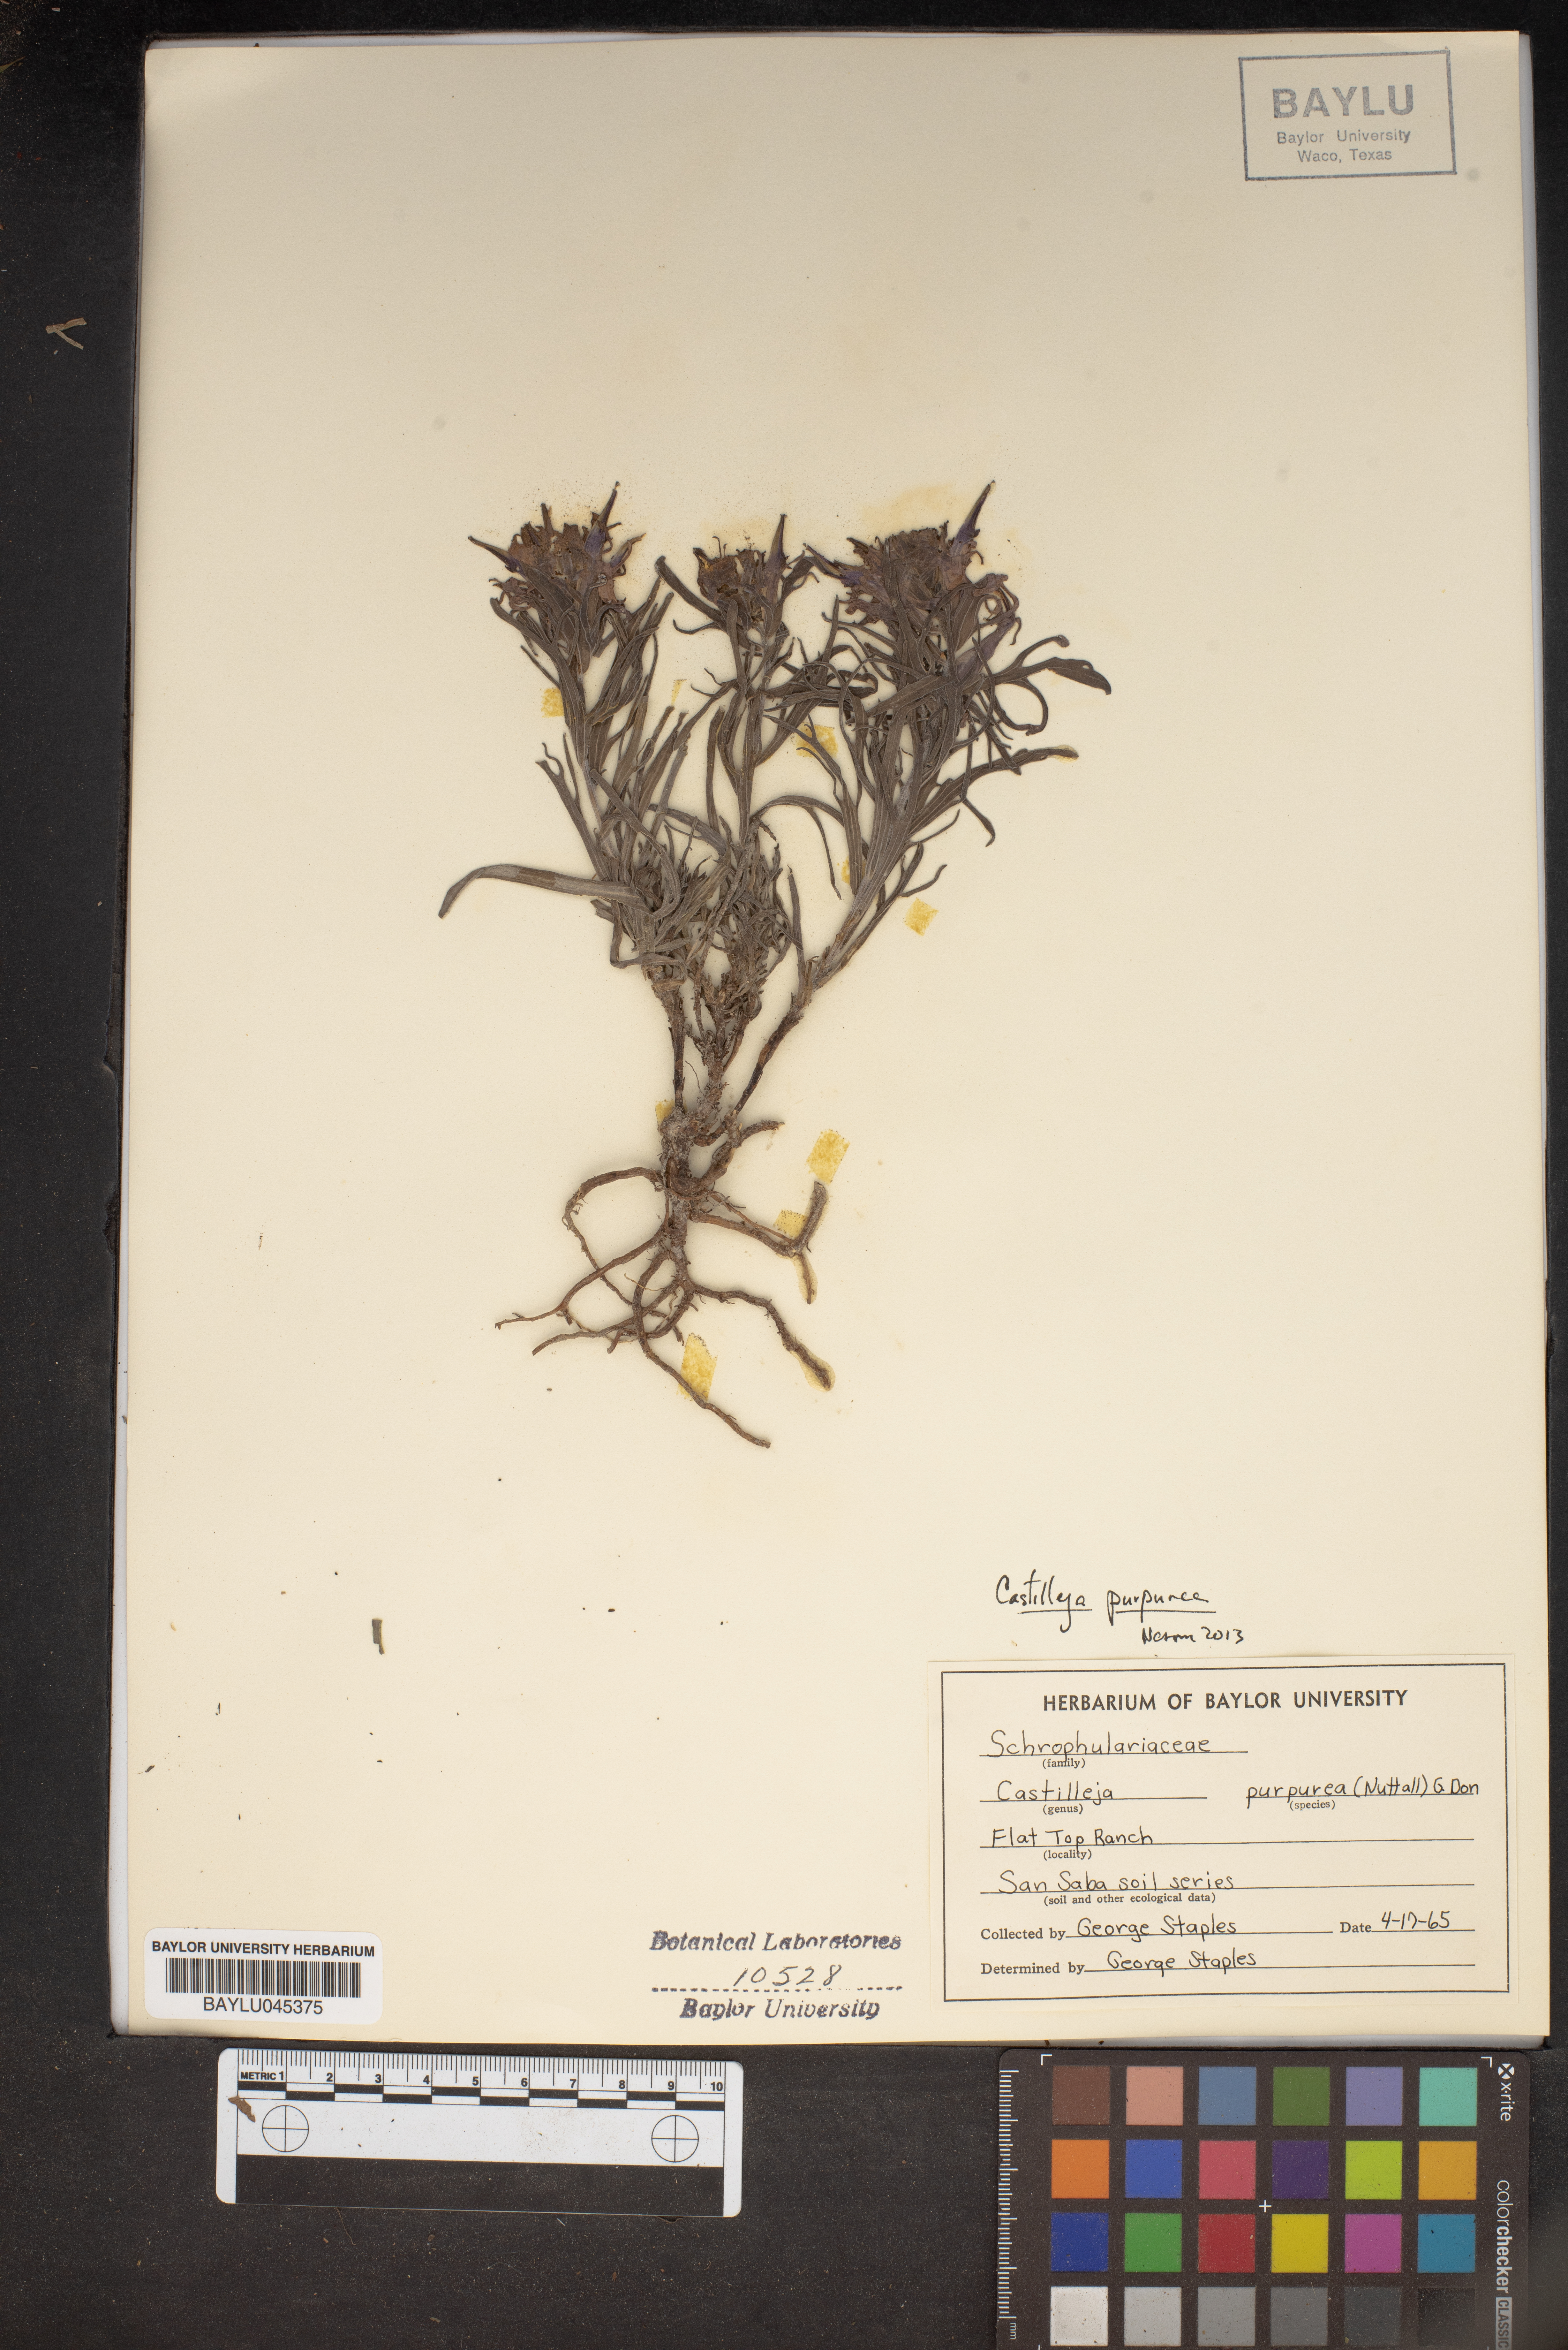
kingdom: Plantae
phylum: Tracheophyta
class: Magnoliopsida
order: Lamiales
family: Orobanchaceae
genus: Castilleja
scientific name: Castilleja purpurea
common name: Plains paintbrush
